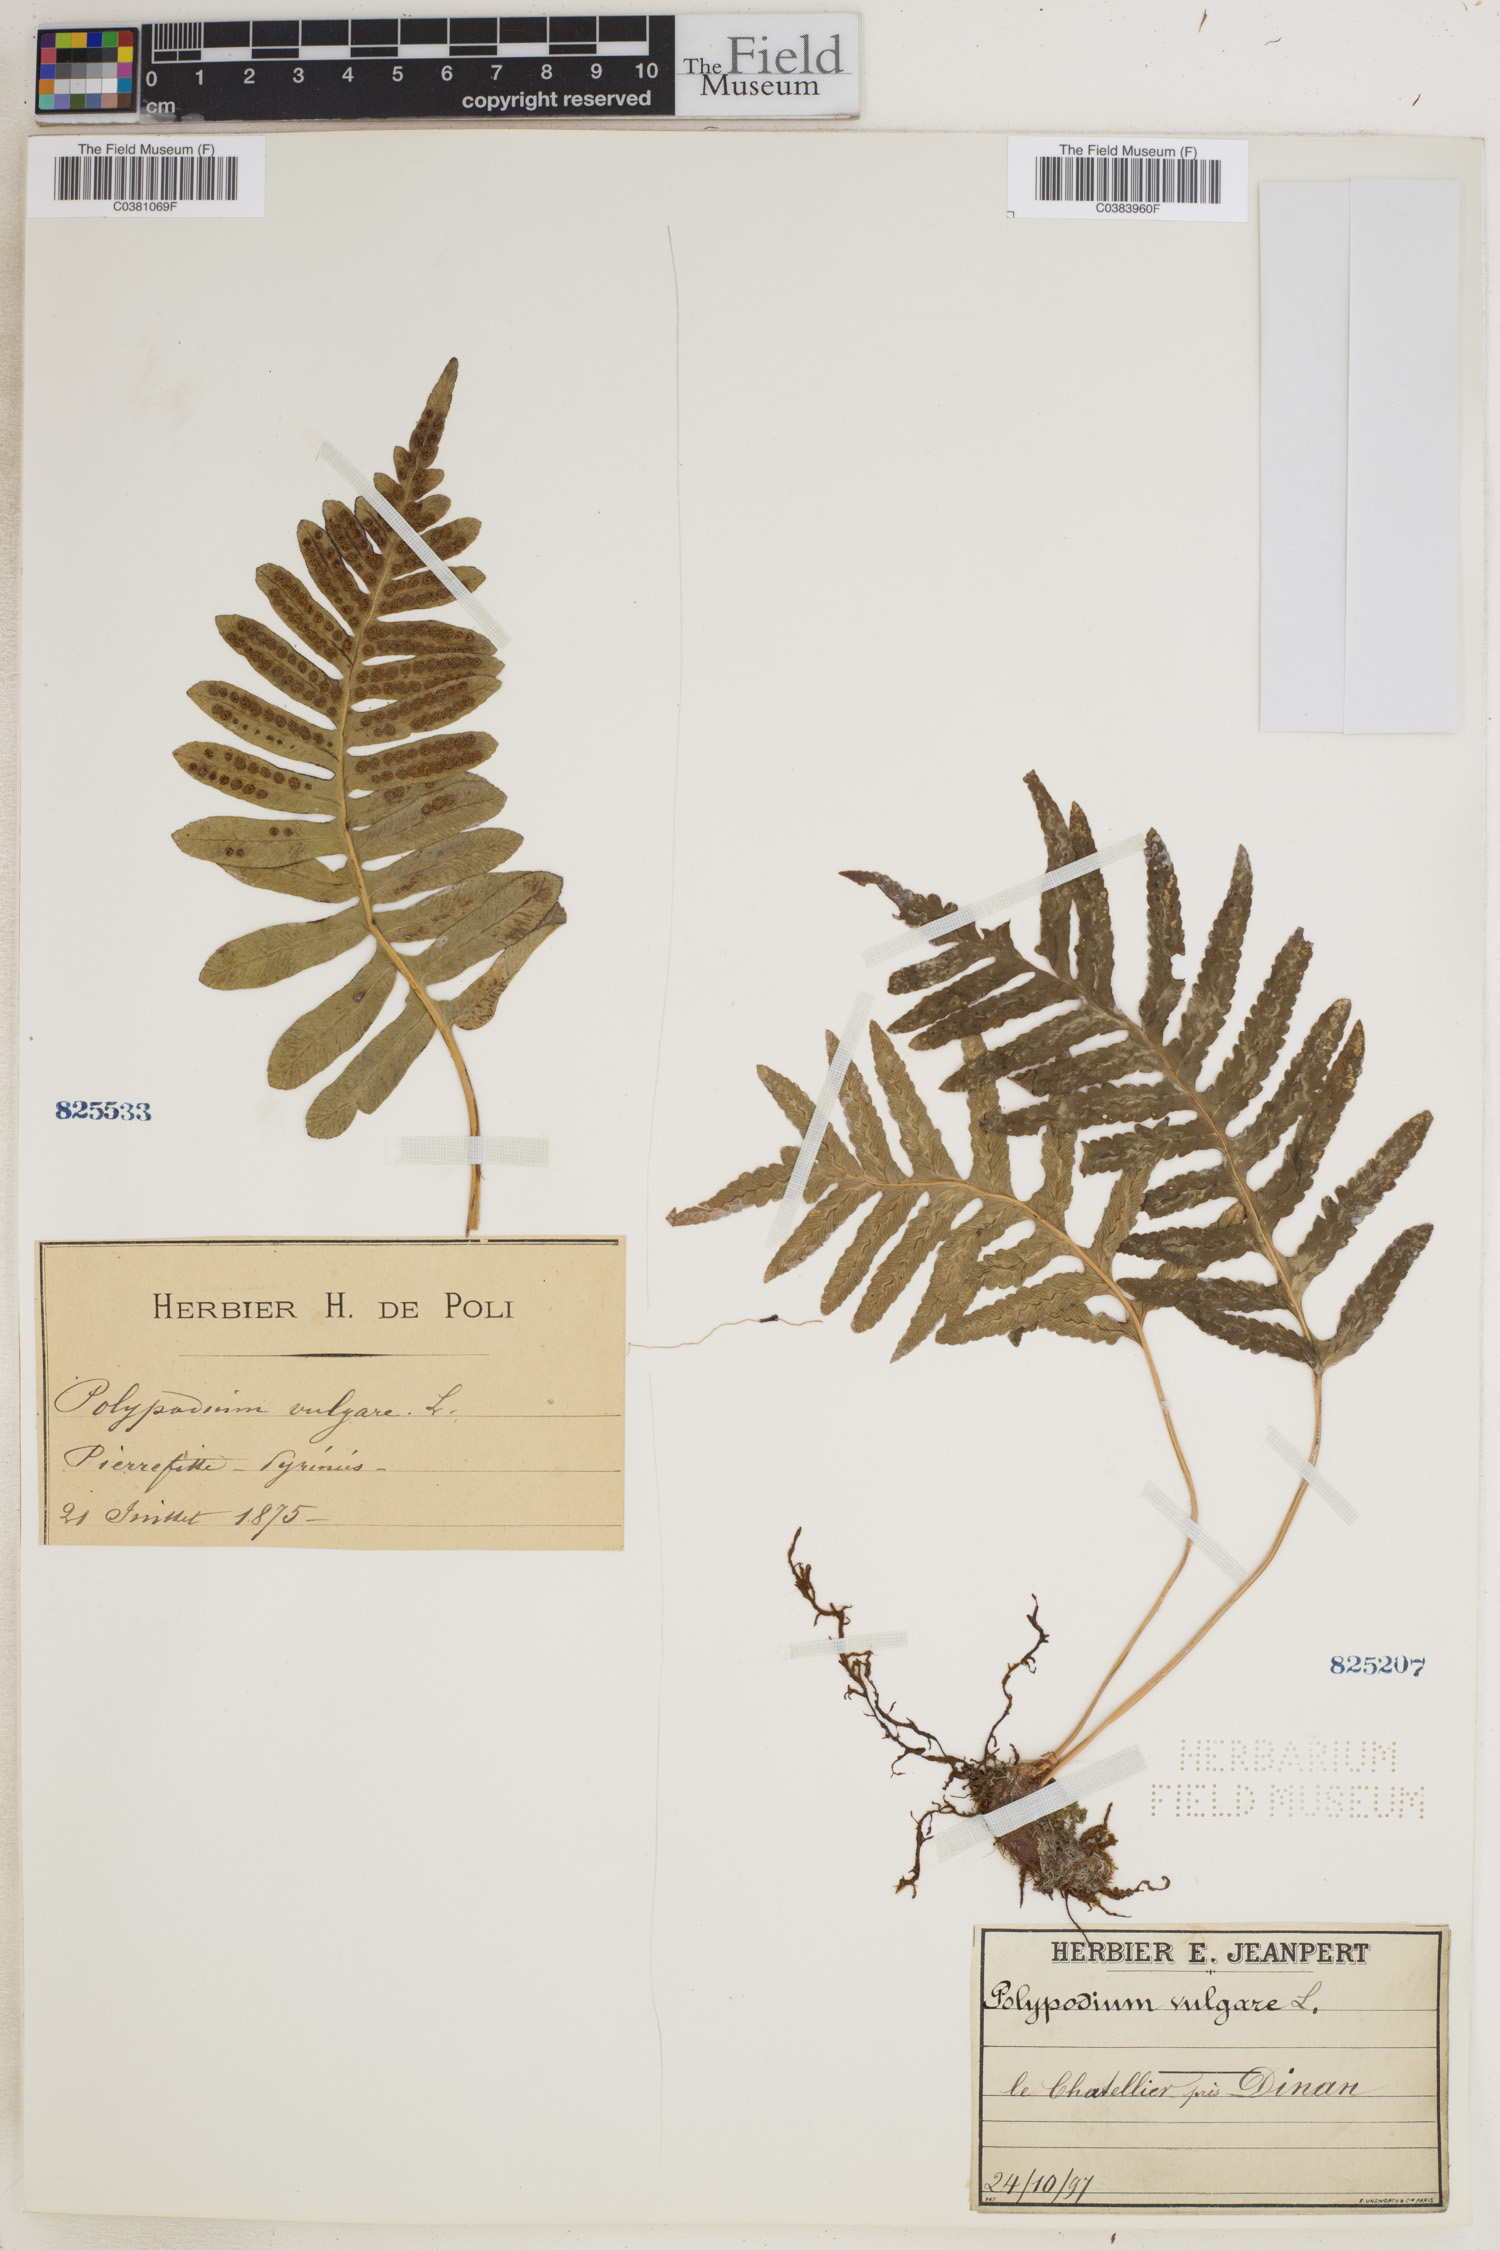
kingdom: Plantae
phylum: Tracheophyta
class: Polypodiopsida
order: Polypodiales
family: Polypodiaceae
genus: Polypodium
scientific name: Polypodium vulgare
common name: Common polypody
